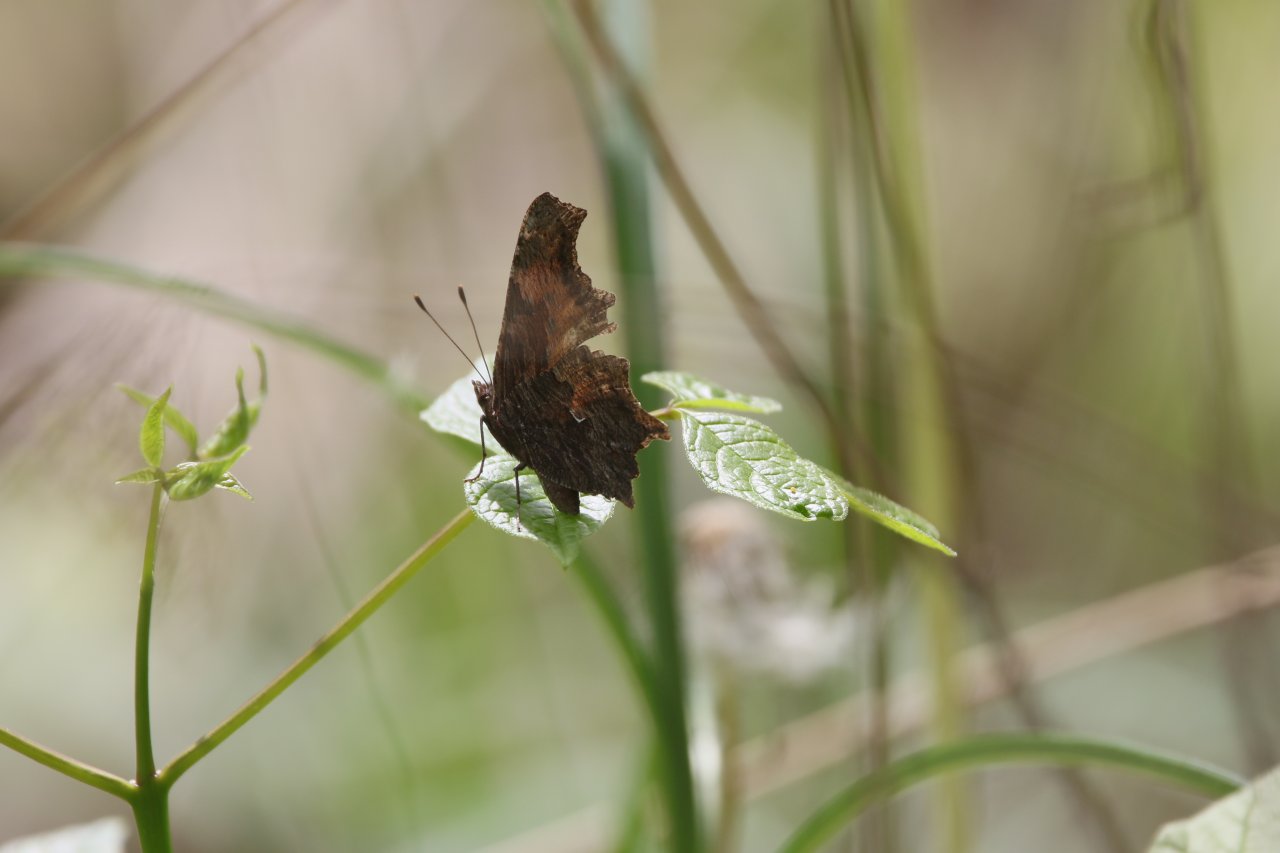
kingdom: Animalia
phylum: Arthropoda
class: Insecta
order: Lepidoptera
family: Nymphalidae
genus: Polygonia
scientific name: Polygonia progne
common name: Gray Comma
